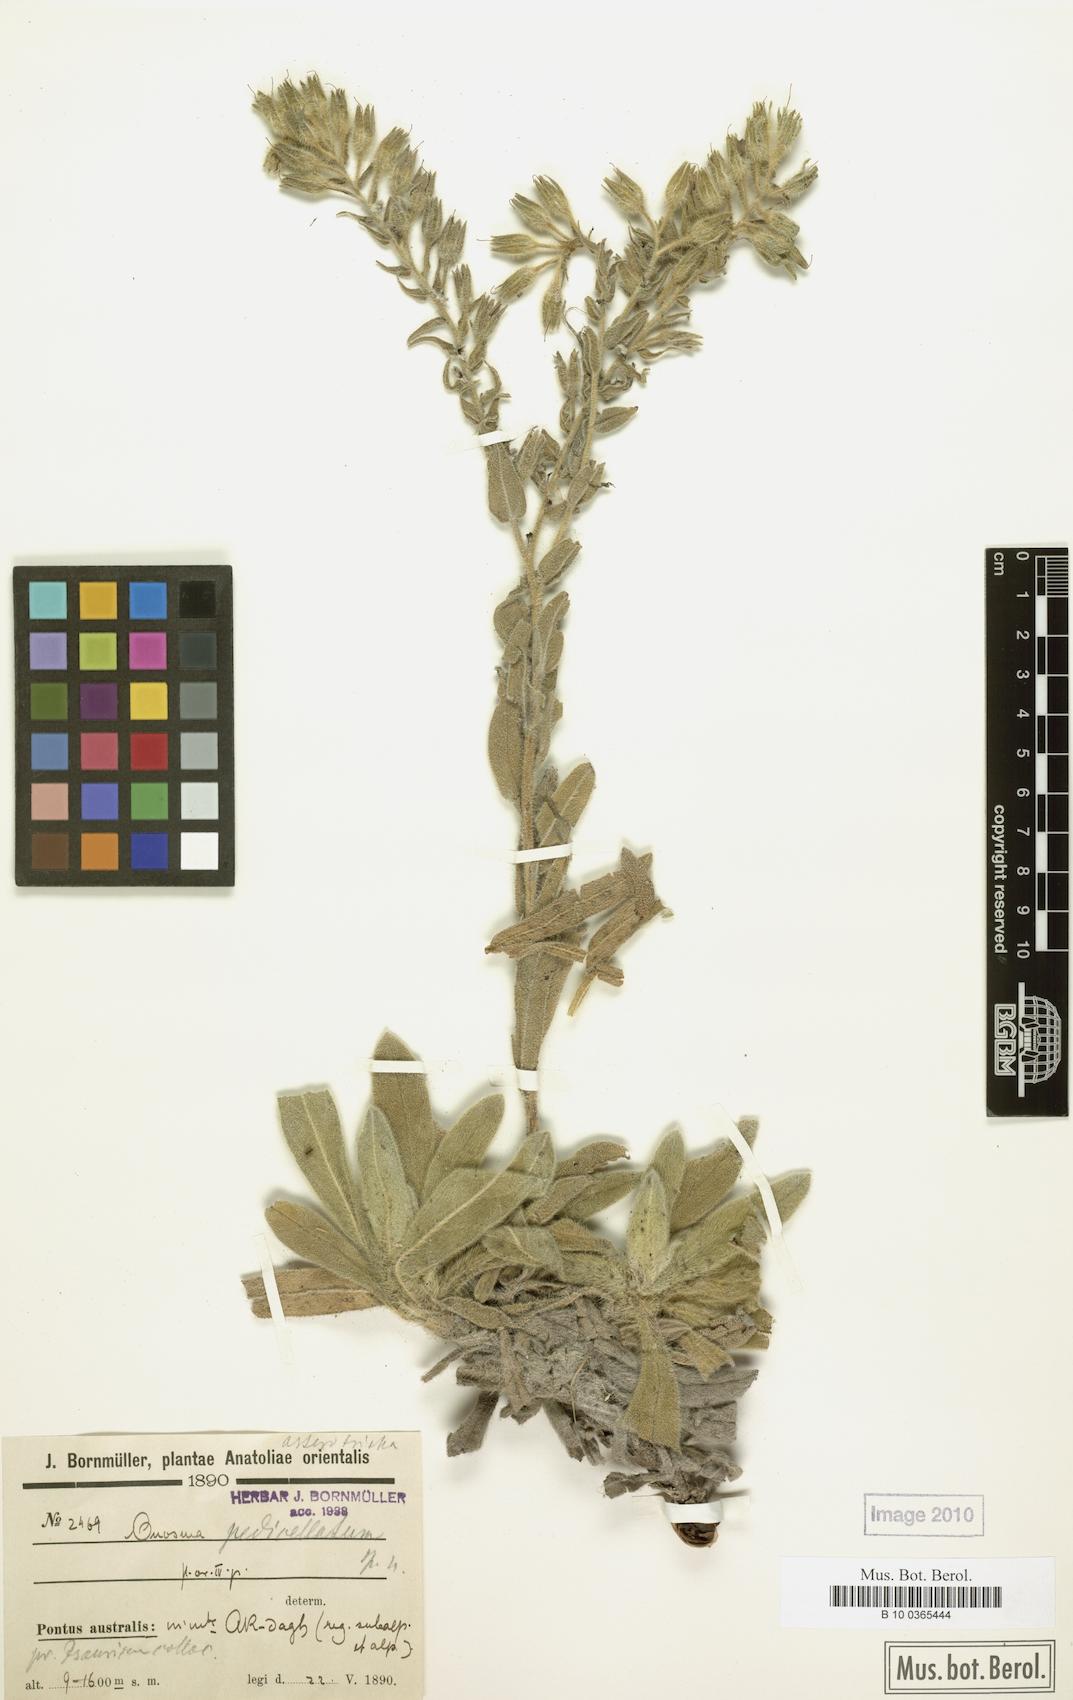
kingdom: Plantae
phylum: Tracheophyta
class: Magnoliopsida
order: Boraginales
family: Boraginaceae
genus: Onosma
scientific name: Onosma
